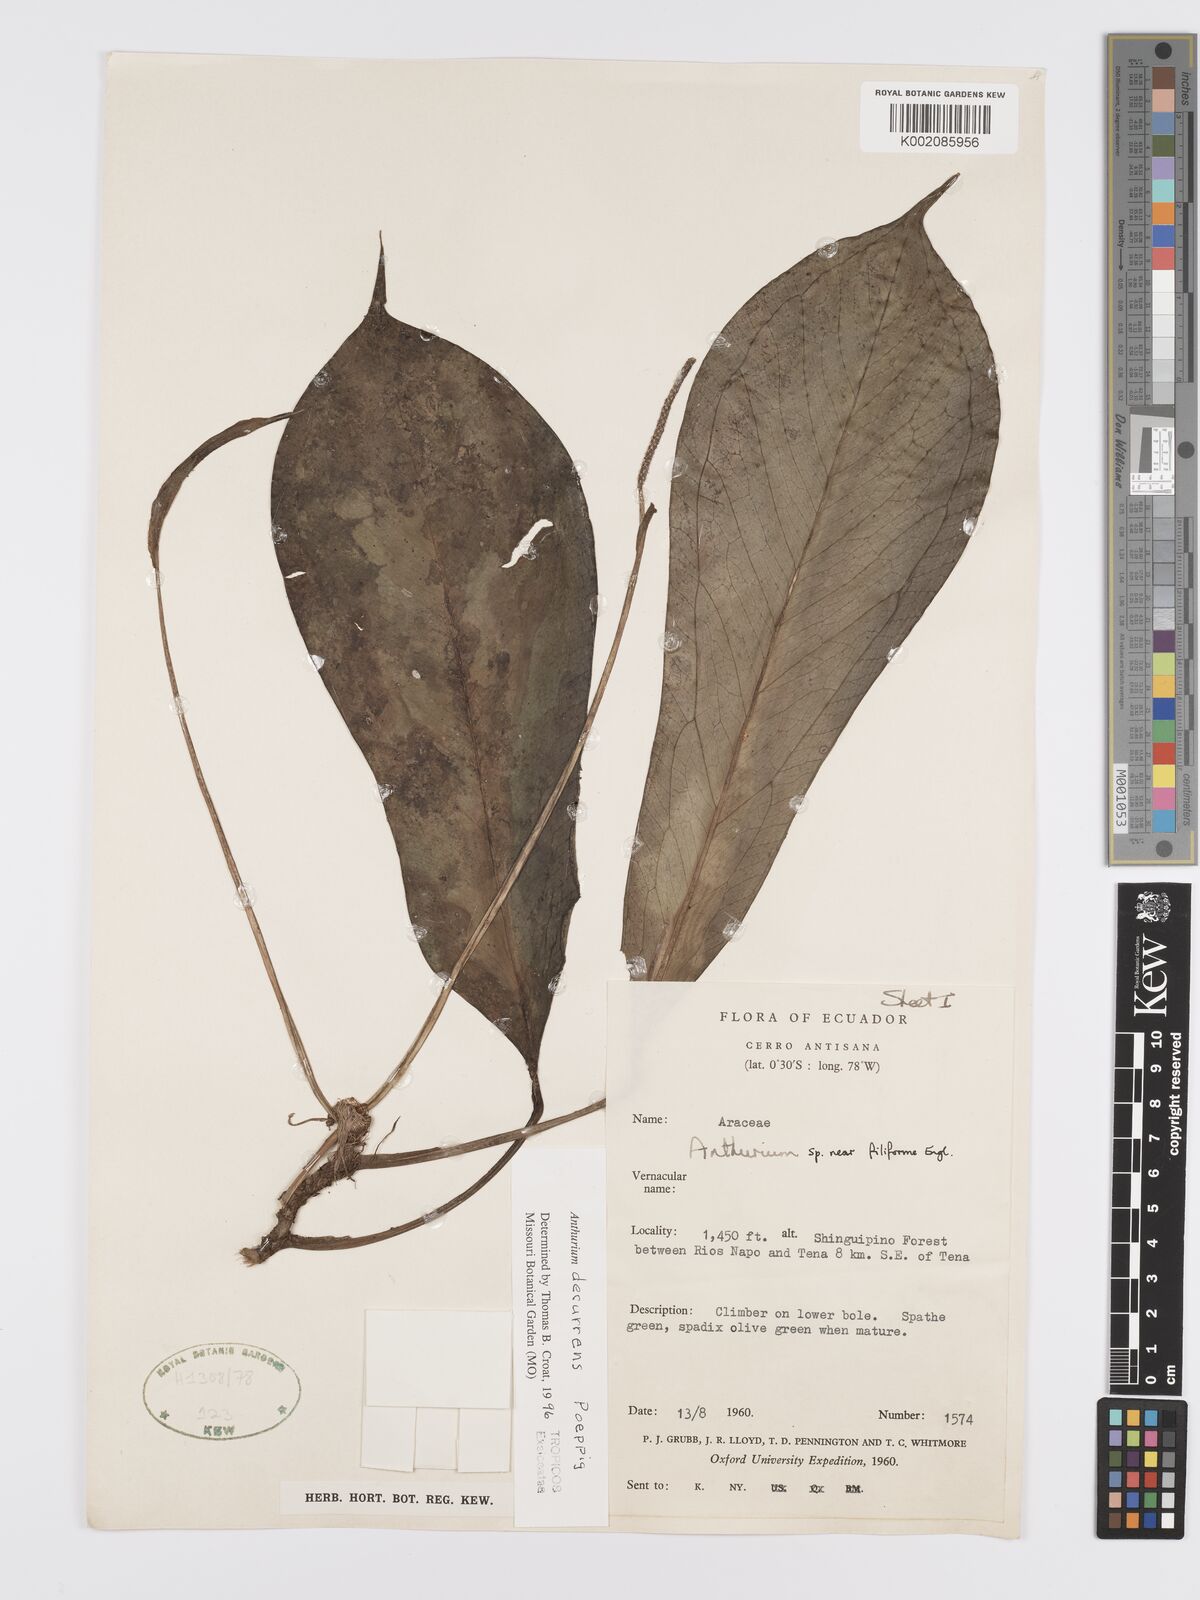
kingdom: Plantae
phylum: Tracheophyta
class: Liliopsida
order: Alismatales
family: Araceae
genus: Anthurium
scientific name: Anthurium decurrens
